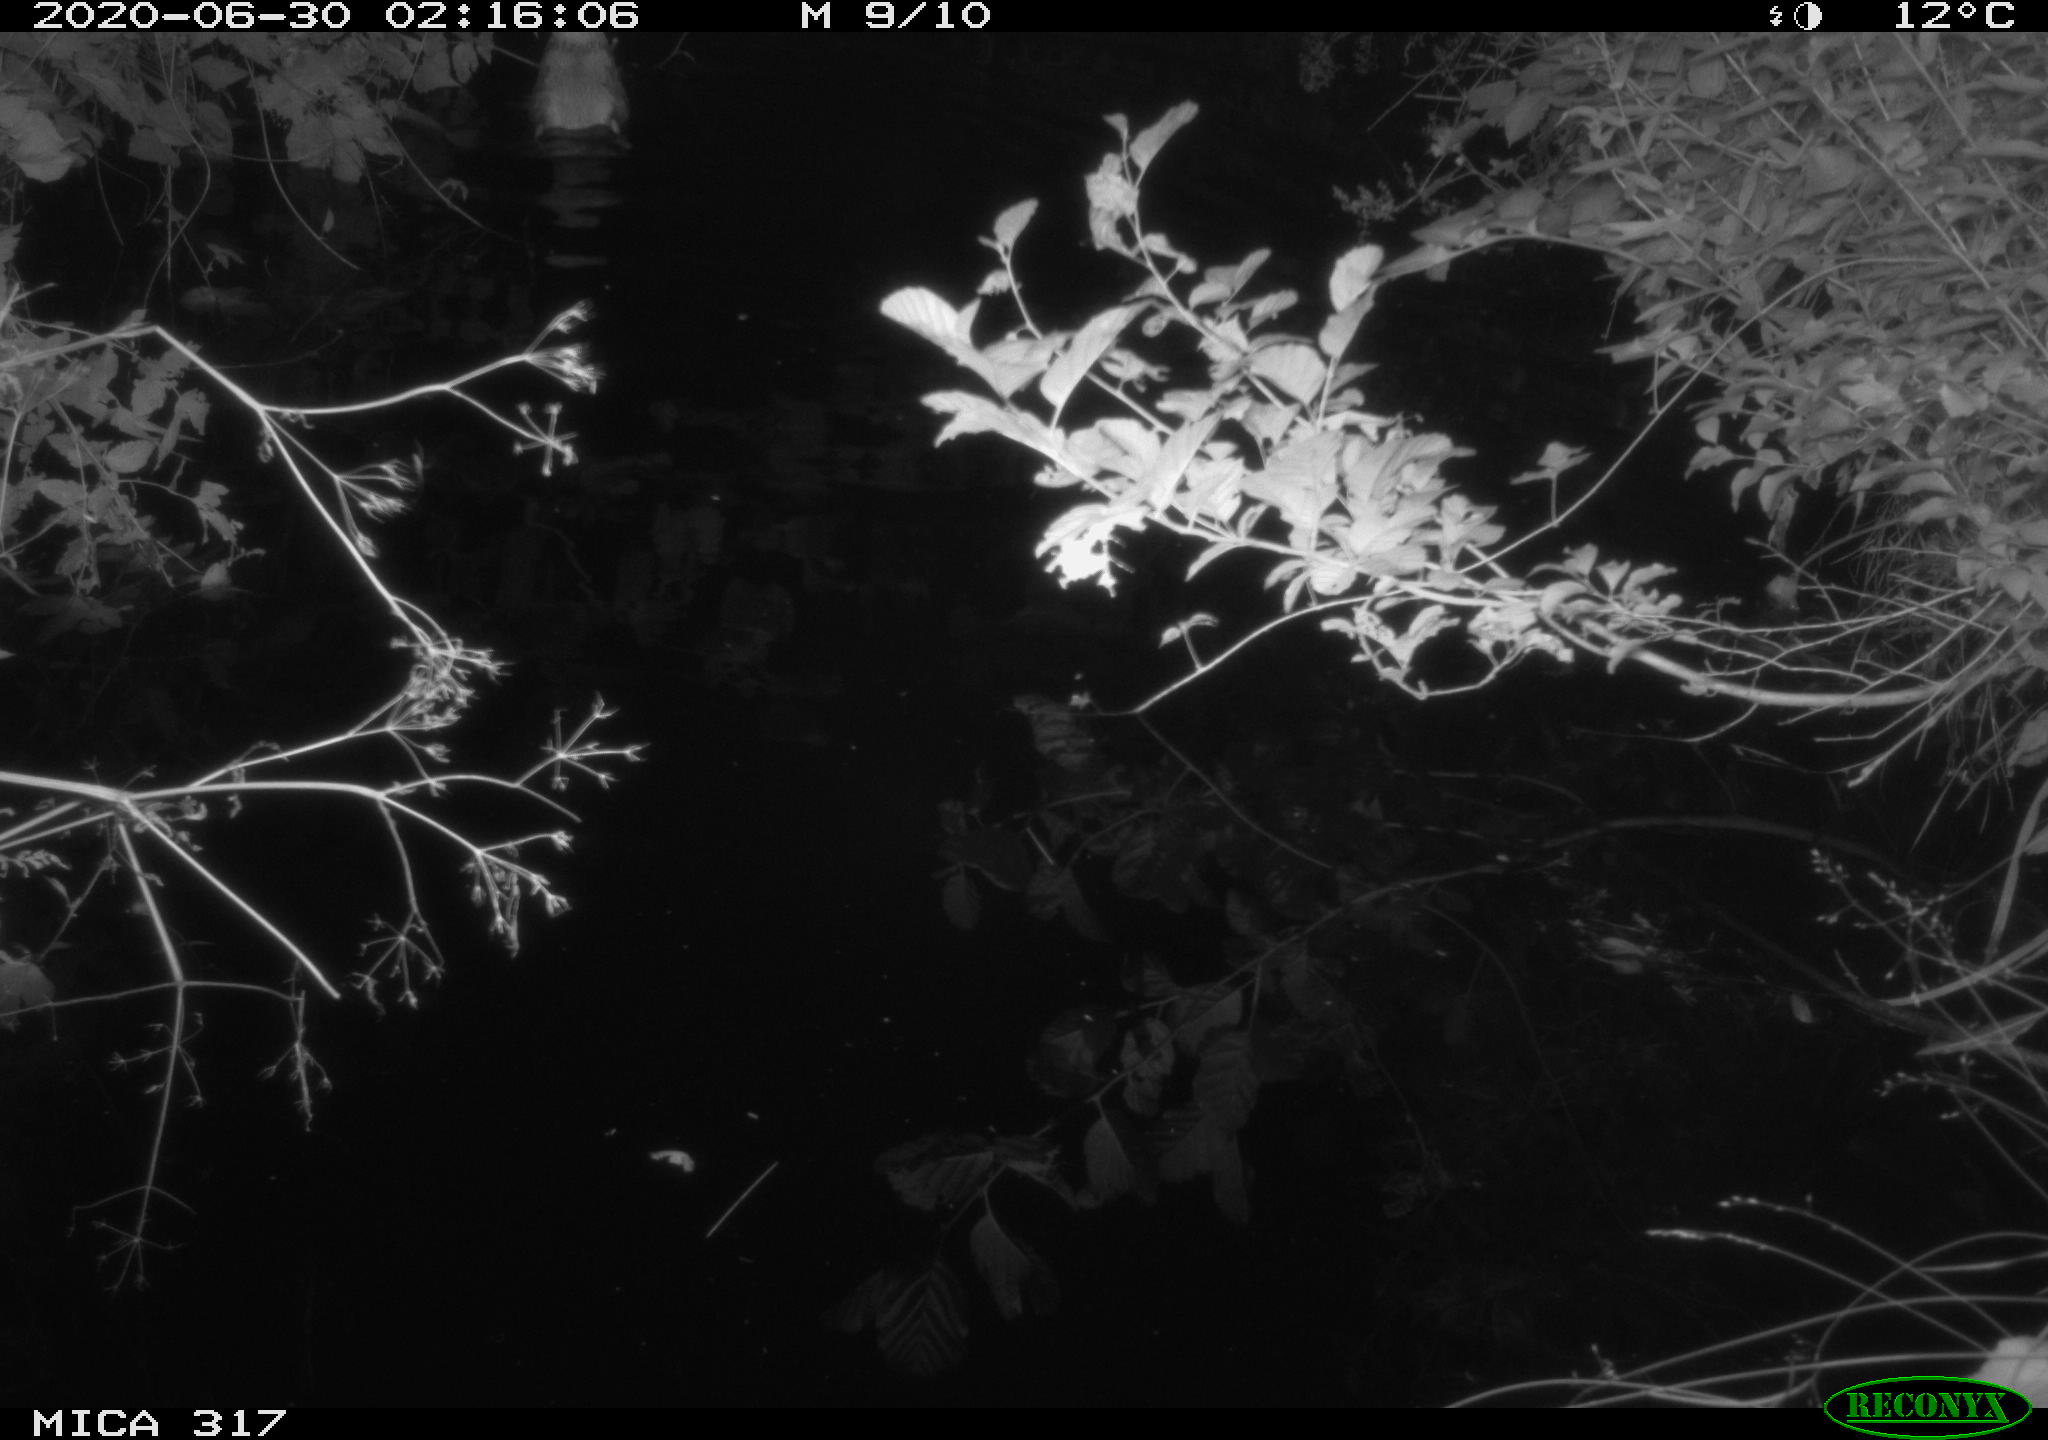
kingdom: Animalia
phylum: Chordata
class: Aves
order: Anseriformes
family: Anatidae
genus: Anas
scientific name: Anas platyrhynchos
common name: Mallard
